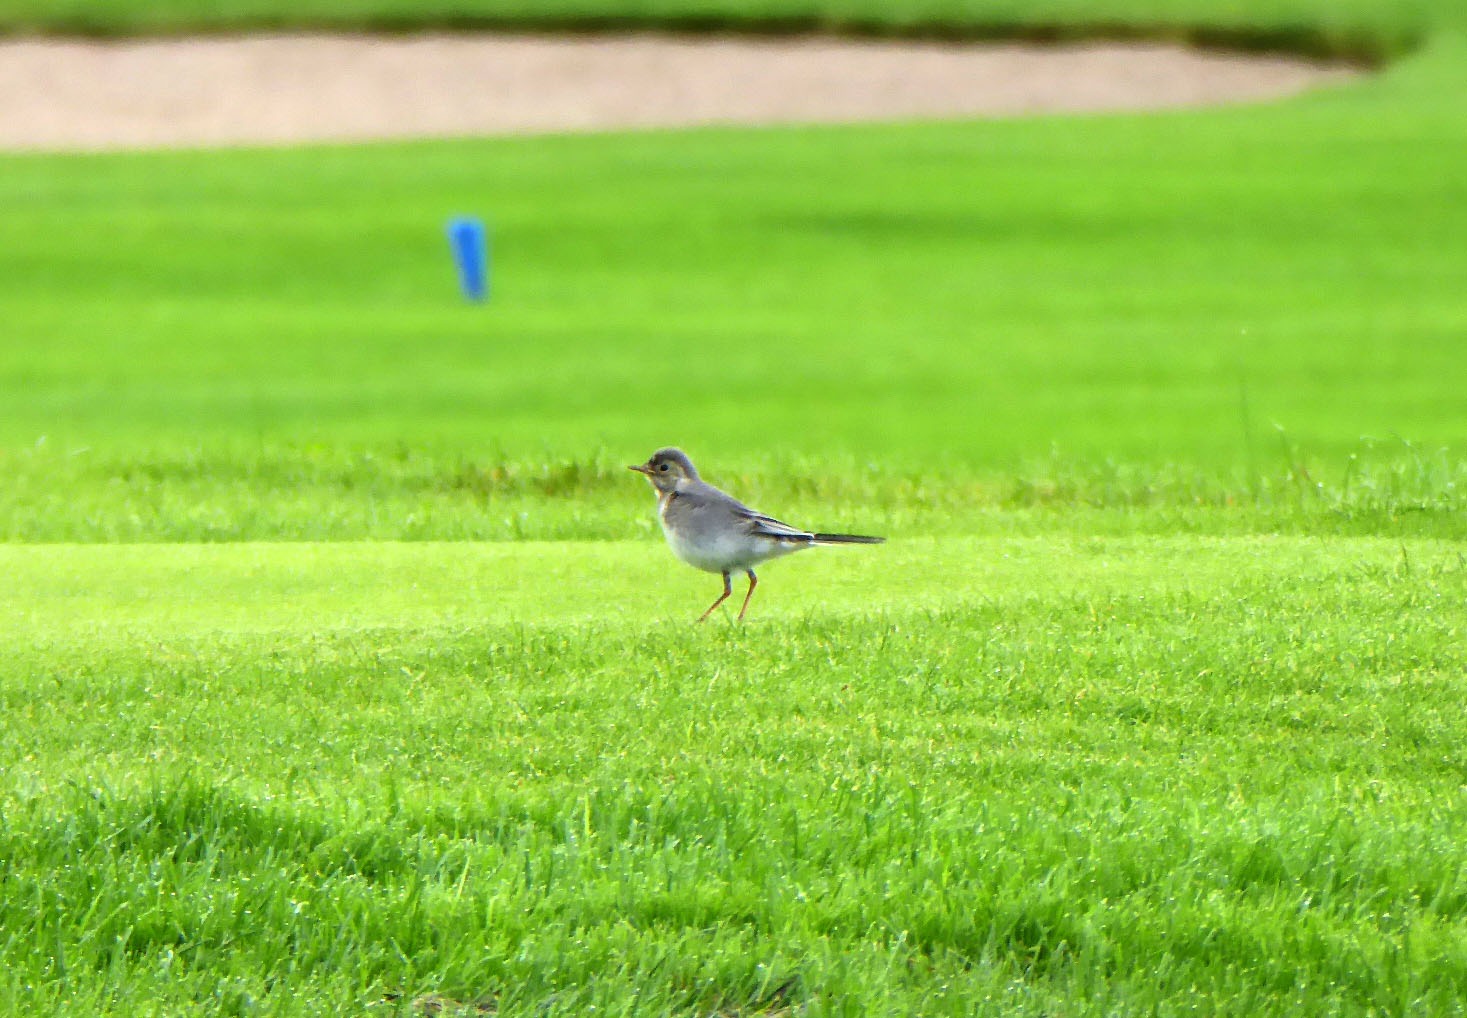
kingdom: Animalia
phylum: Chordata
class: Aves
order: Passeriformes
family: Motacillidae
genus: Motacilla
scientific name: Motacilla alba
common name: Hvid vipstjert
